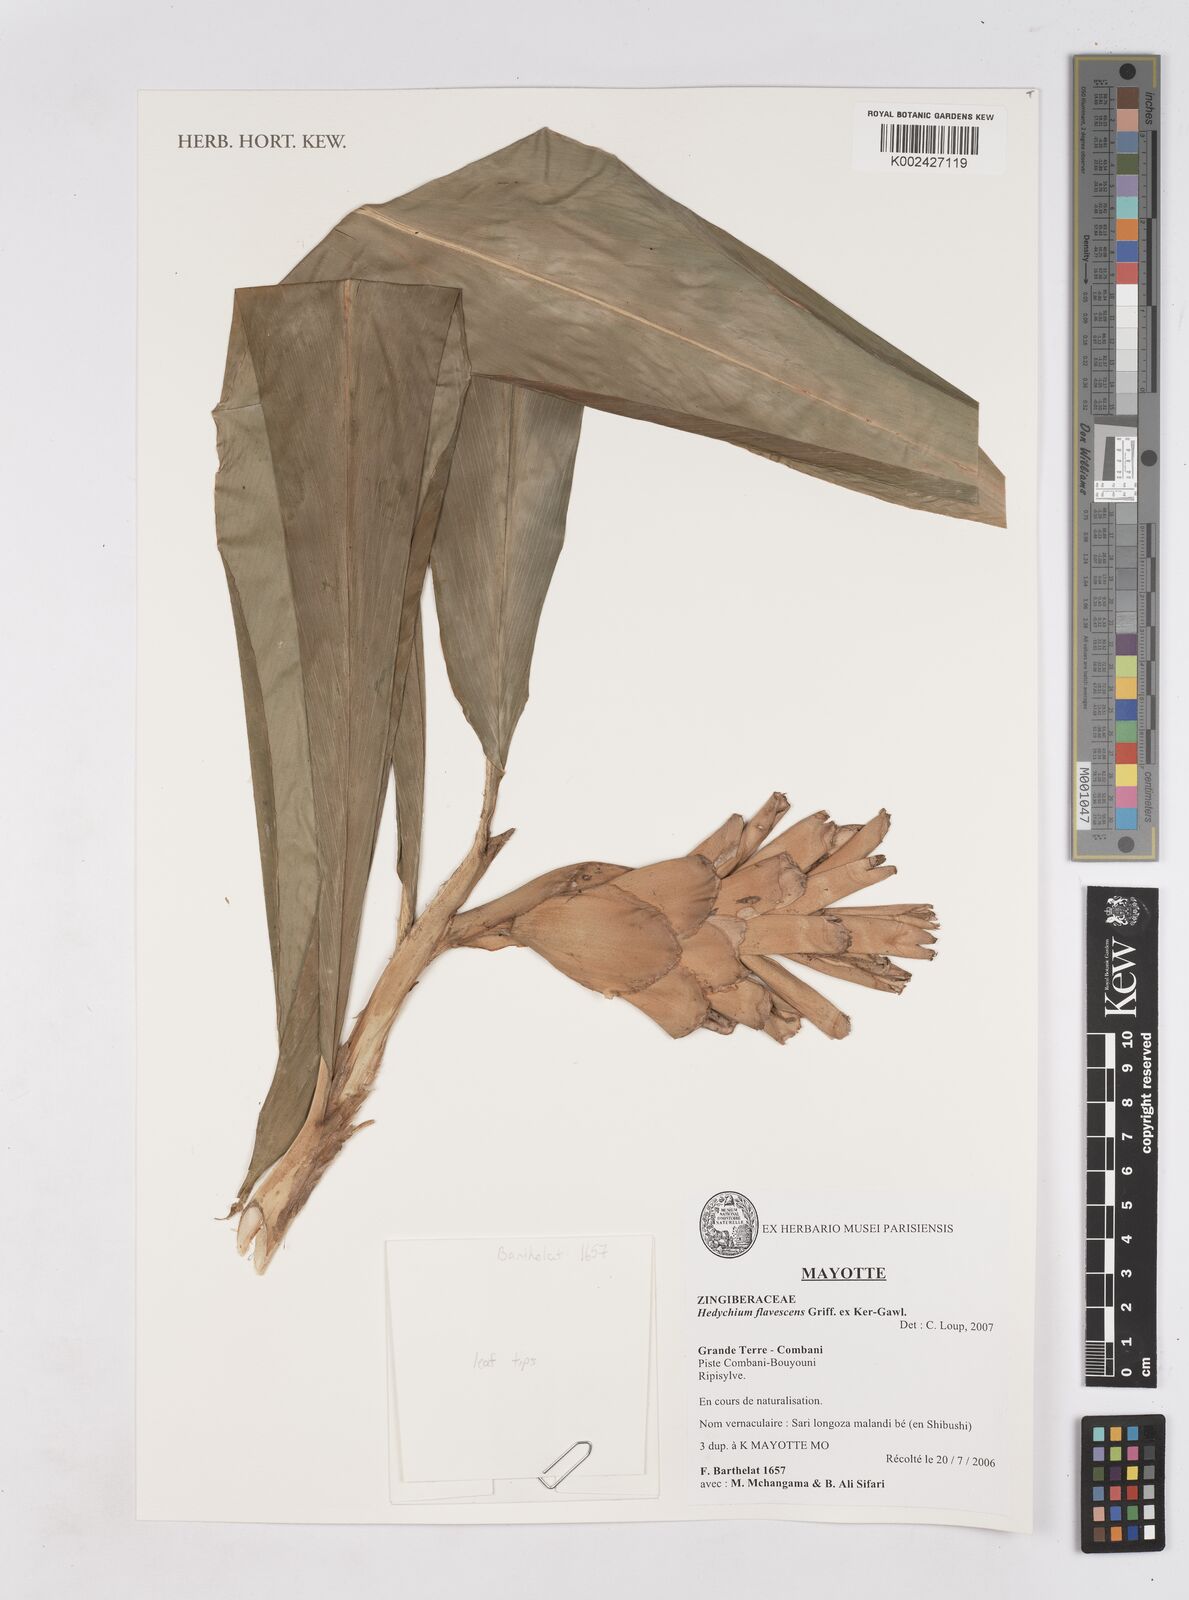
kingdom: Plantae
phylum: Tracheophyta
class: Liliopsida
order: Zingiberales
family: Zingiberaceae
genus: Hedychium
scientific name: Hedychium flavescens
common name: Yellow ginger
